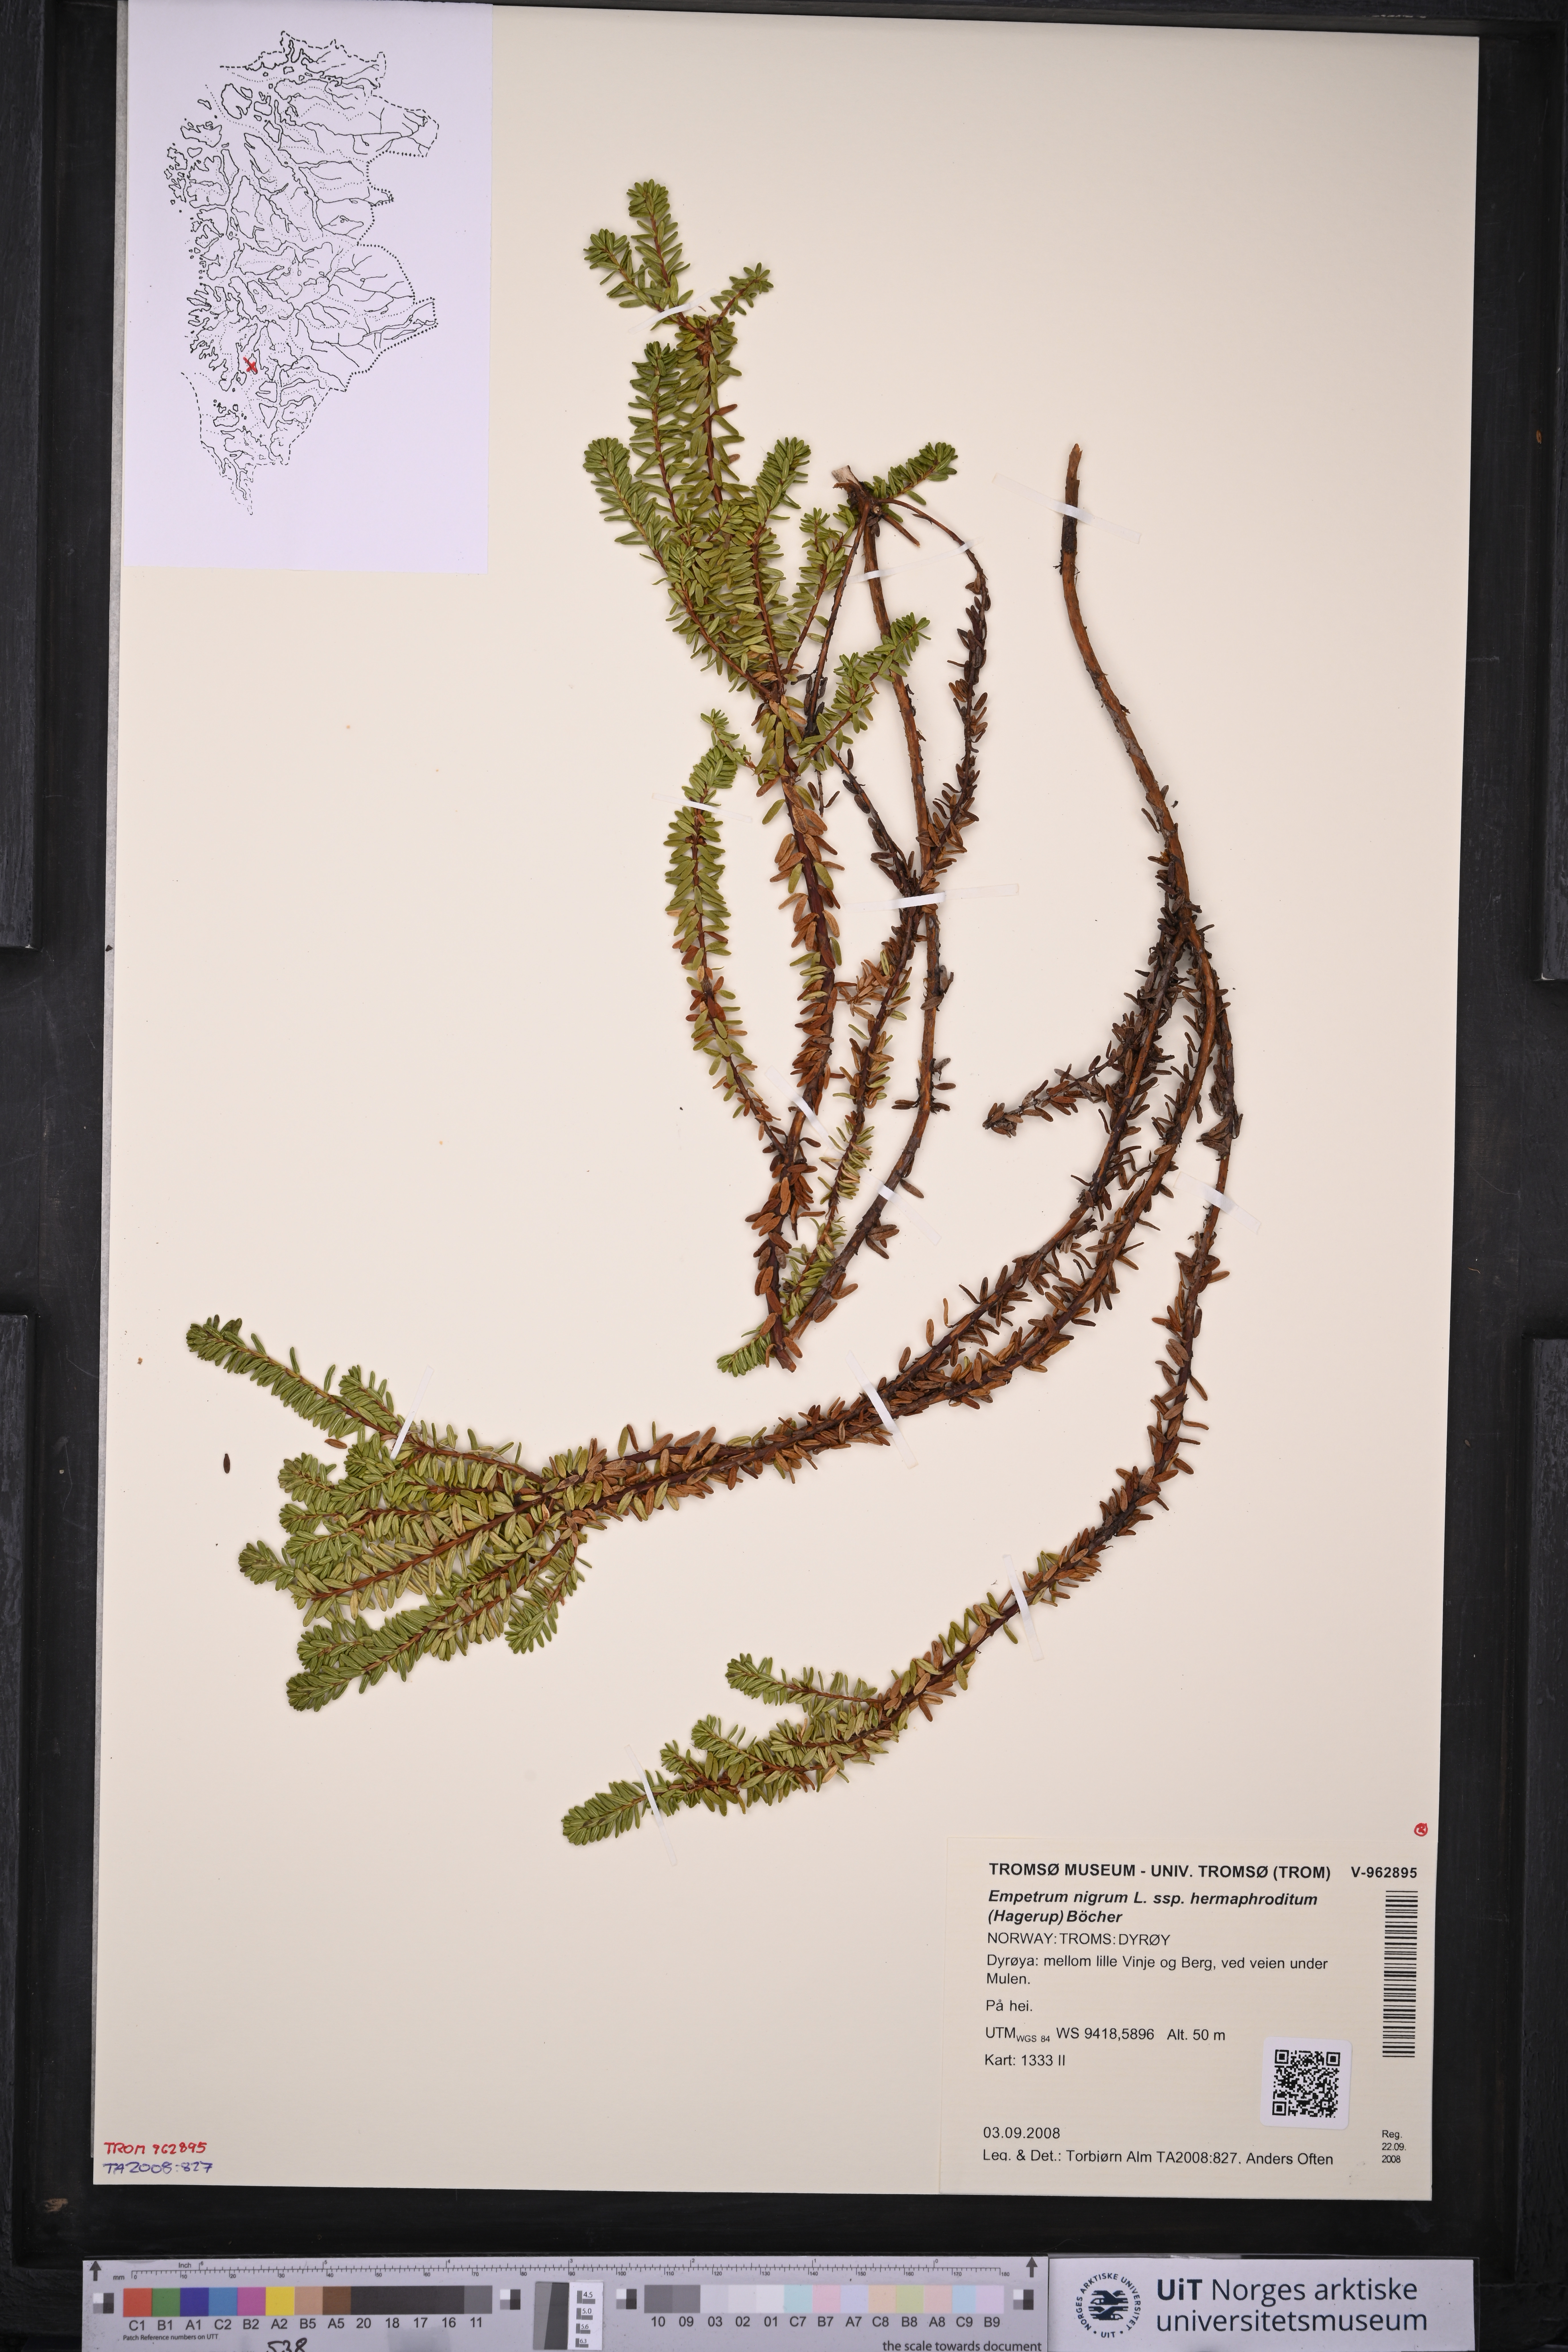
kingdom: Plantae
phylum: Tracheophyta
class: Magnoliopsida
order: Ericales
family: Ericaceae
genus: Empetrum
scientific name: Empetrum hermaphroditum
